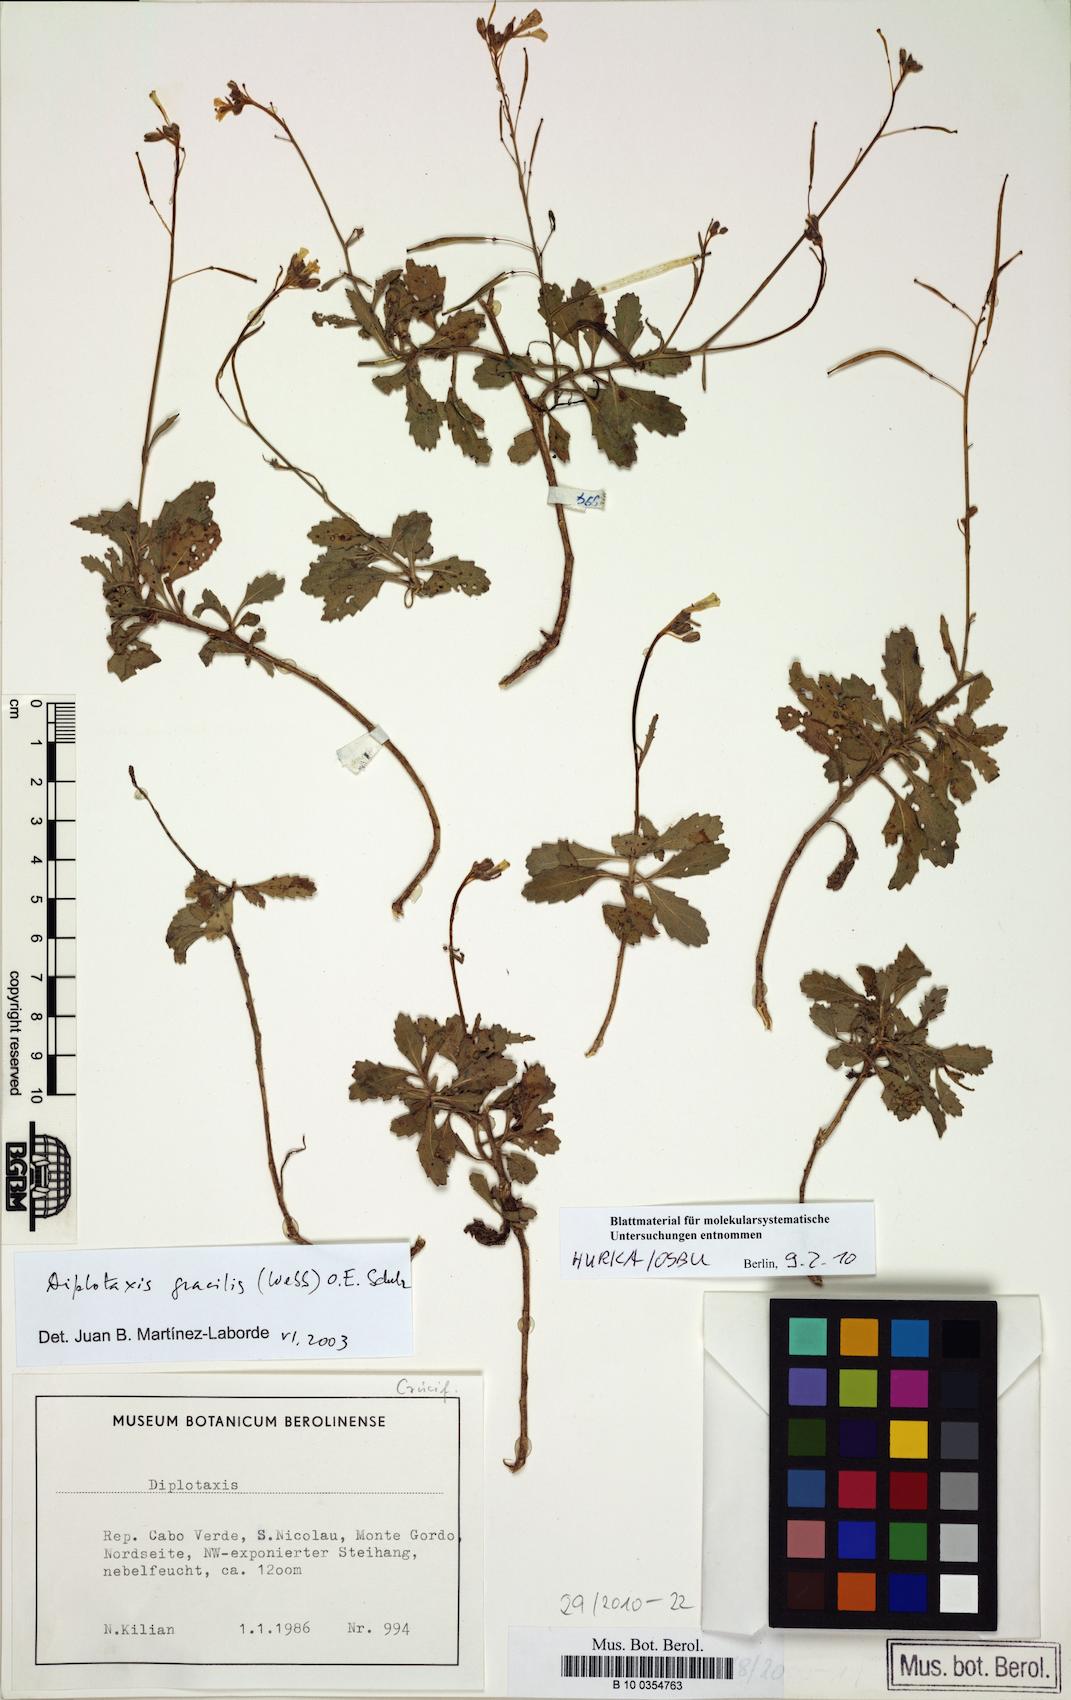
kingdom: Plantae
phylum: Tracheophyta
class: Magnoliopsida
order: Brassicales
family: Brassicaceae
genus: Diplotaxis
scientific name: Diplotaxis gracilis
